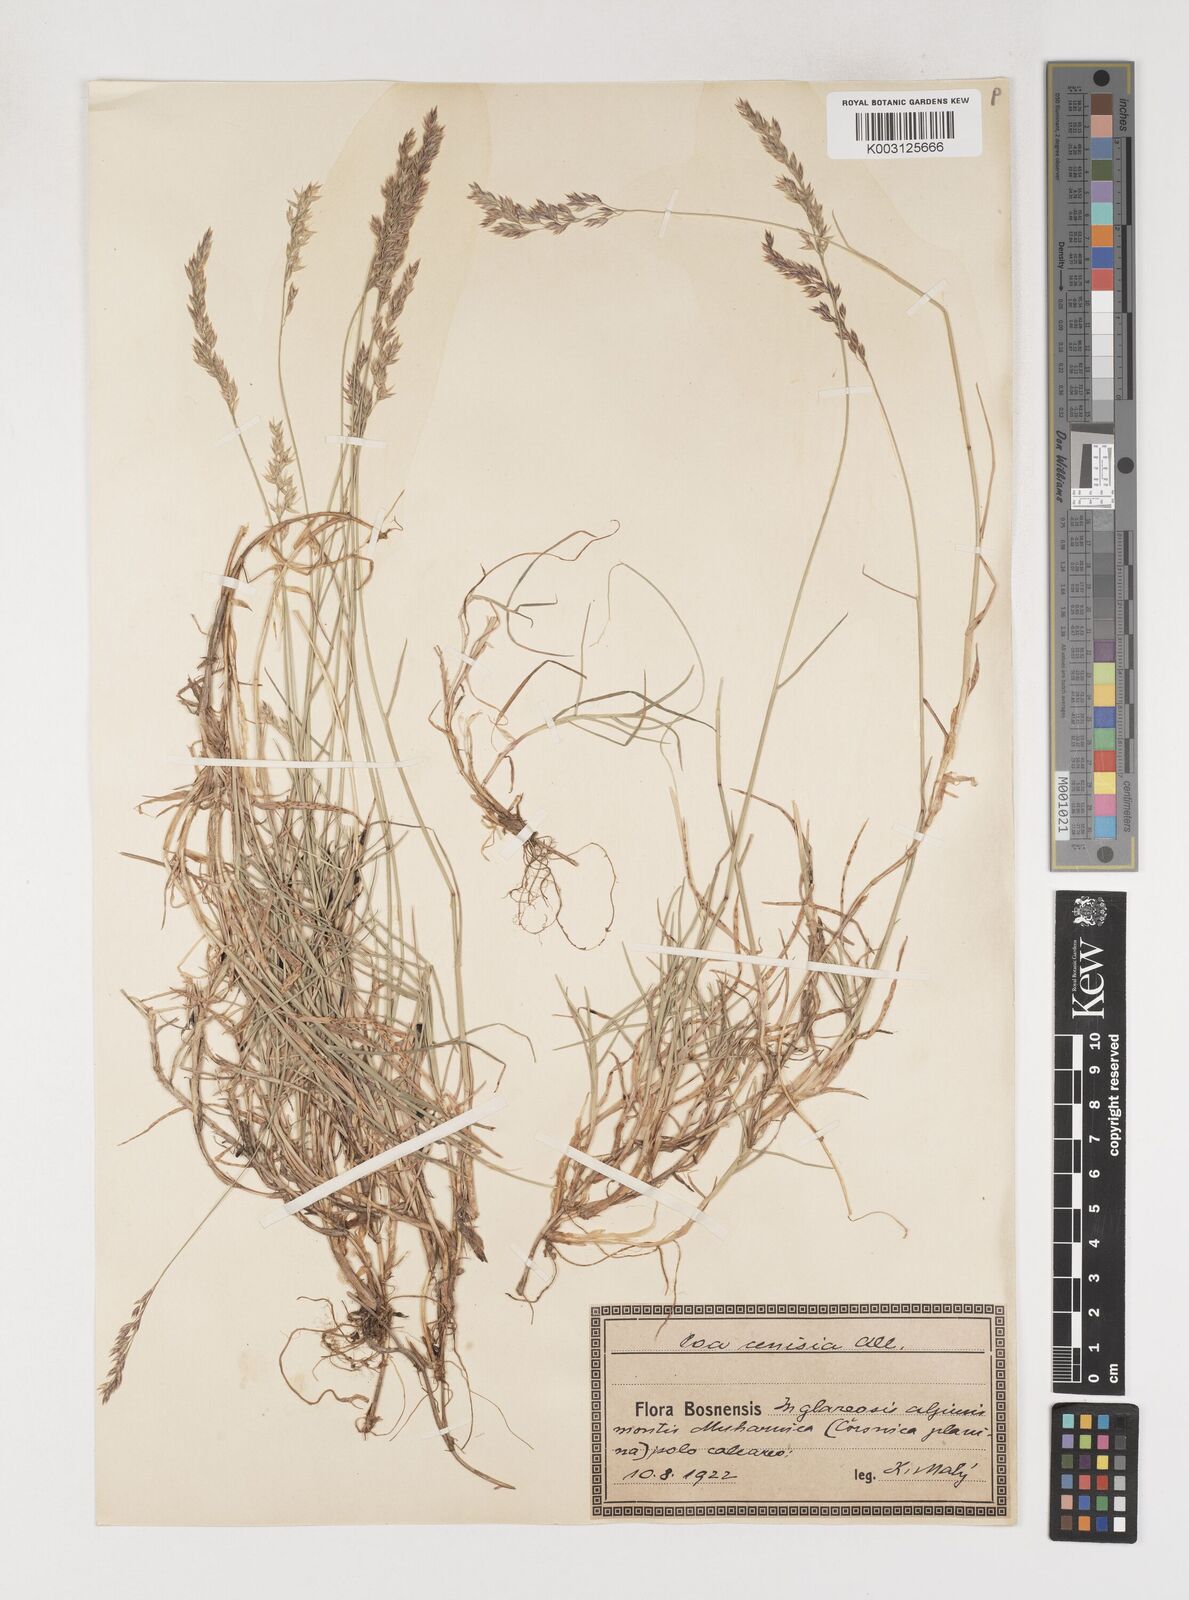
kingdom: Plantae
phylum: Tracheophyta
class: Liliopsida
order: Poales
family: Poaceae
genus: Poa
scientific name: Poa
